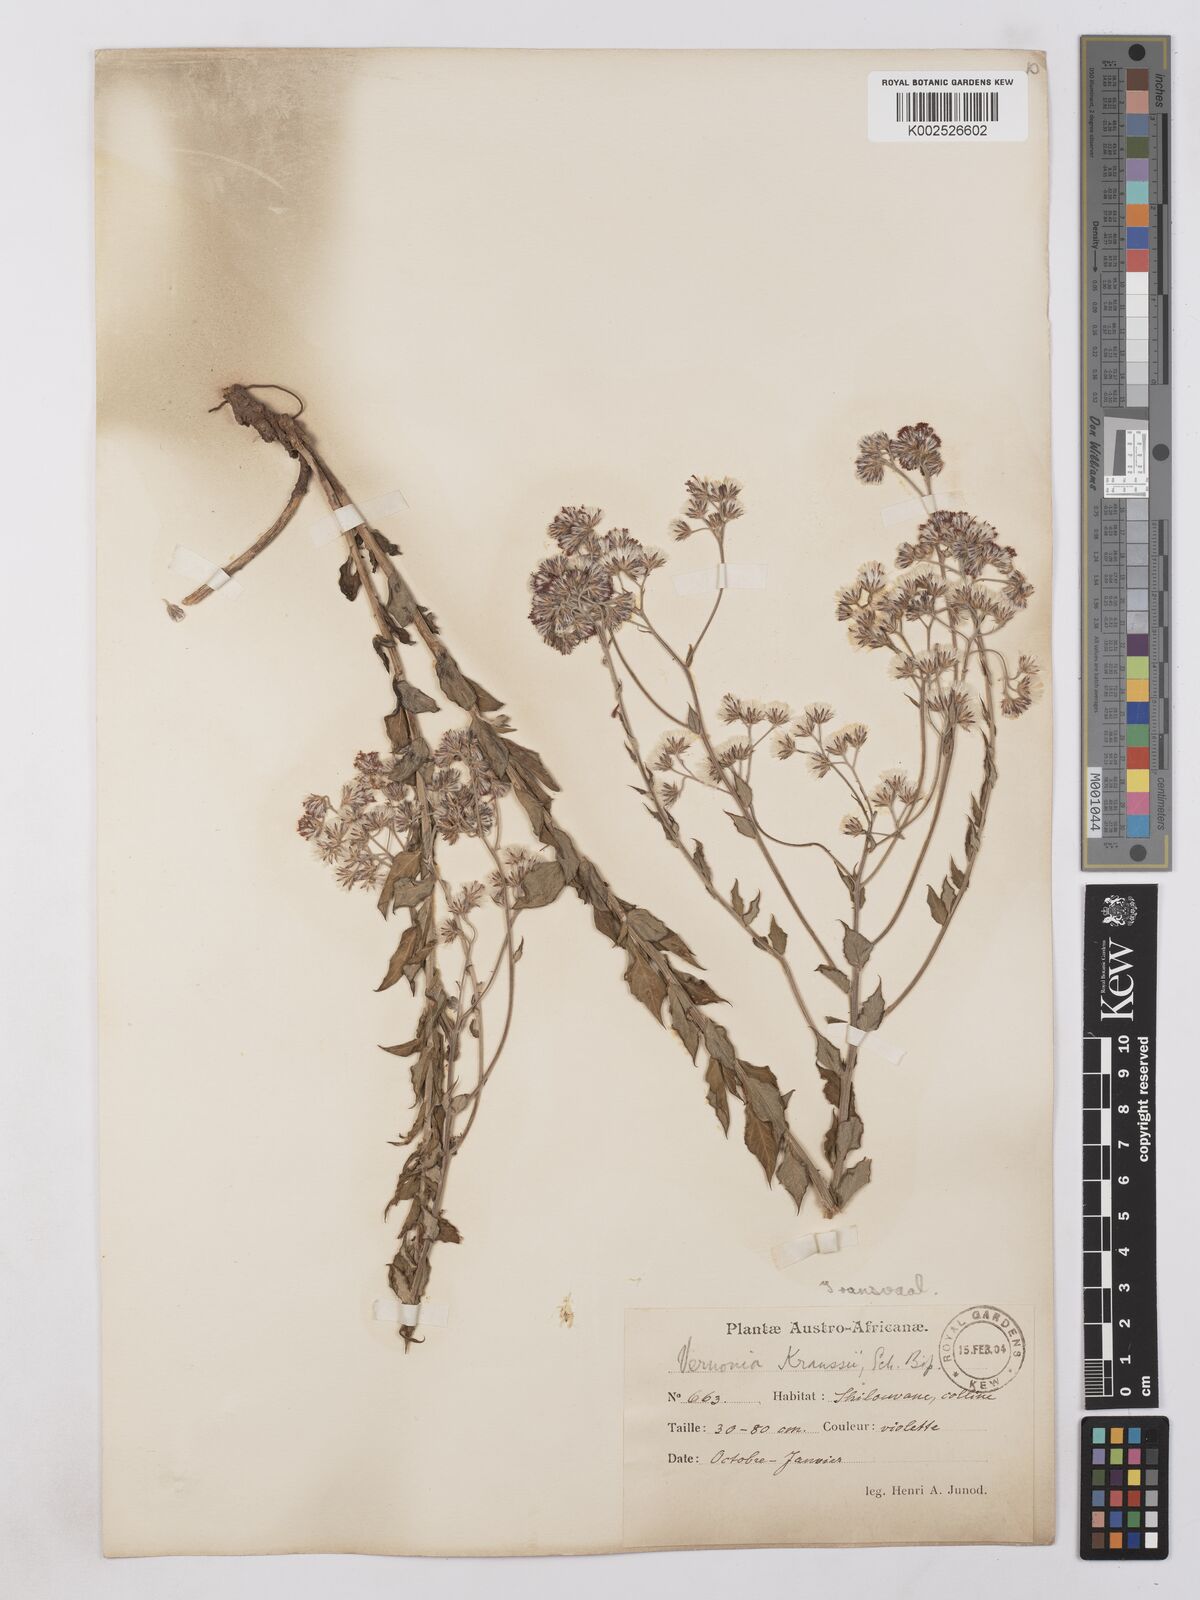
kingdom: Plantae
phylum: Tracheophyta
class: Magnoliopsida
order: Asterales
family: Asteraceae
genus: Lepidaploa
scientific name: Lepidaploa aurea
